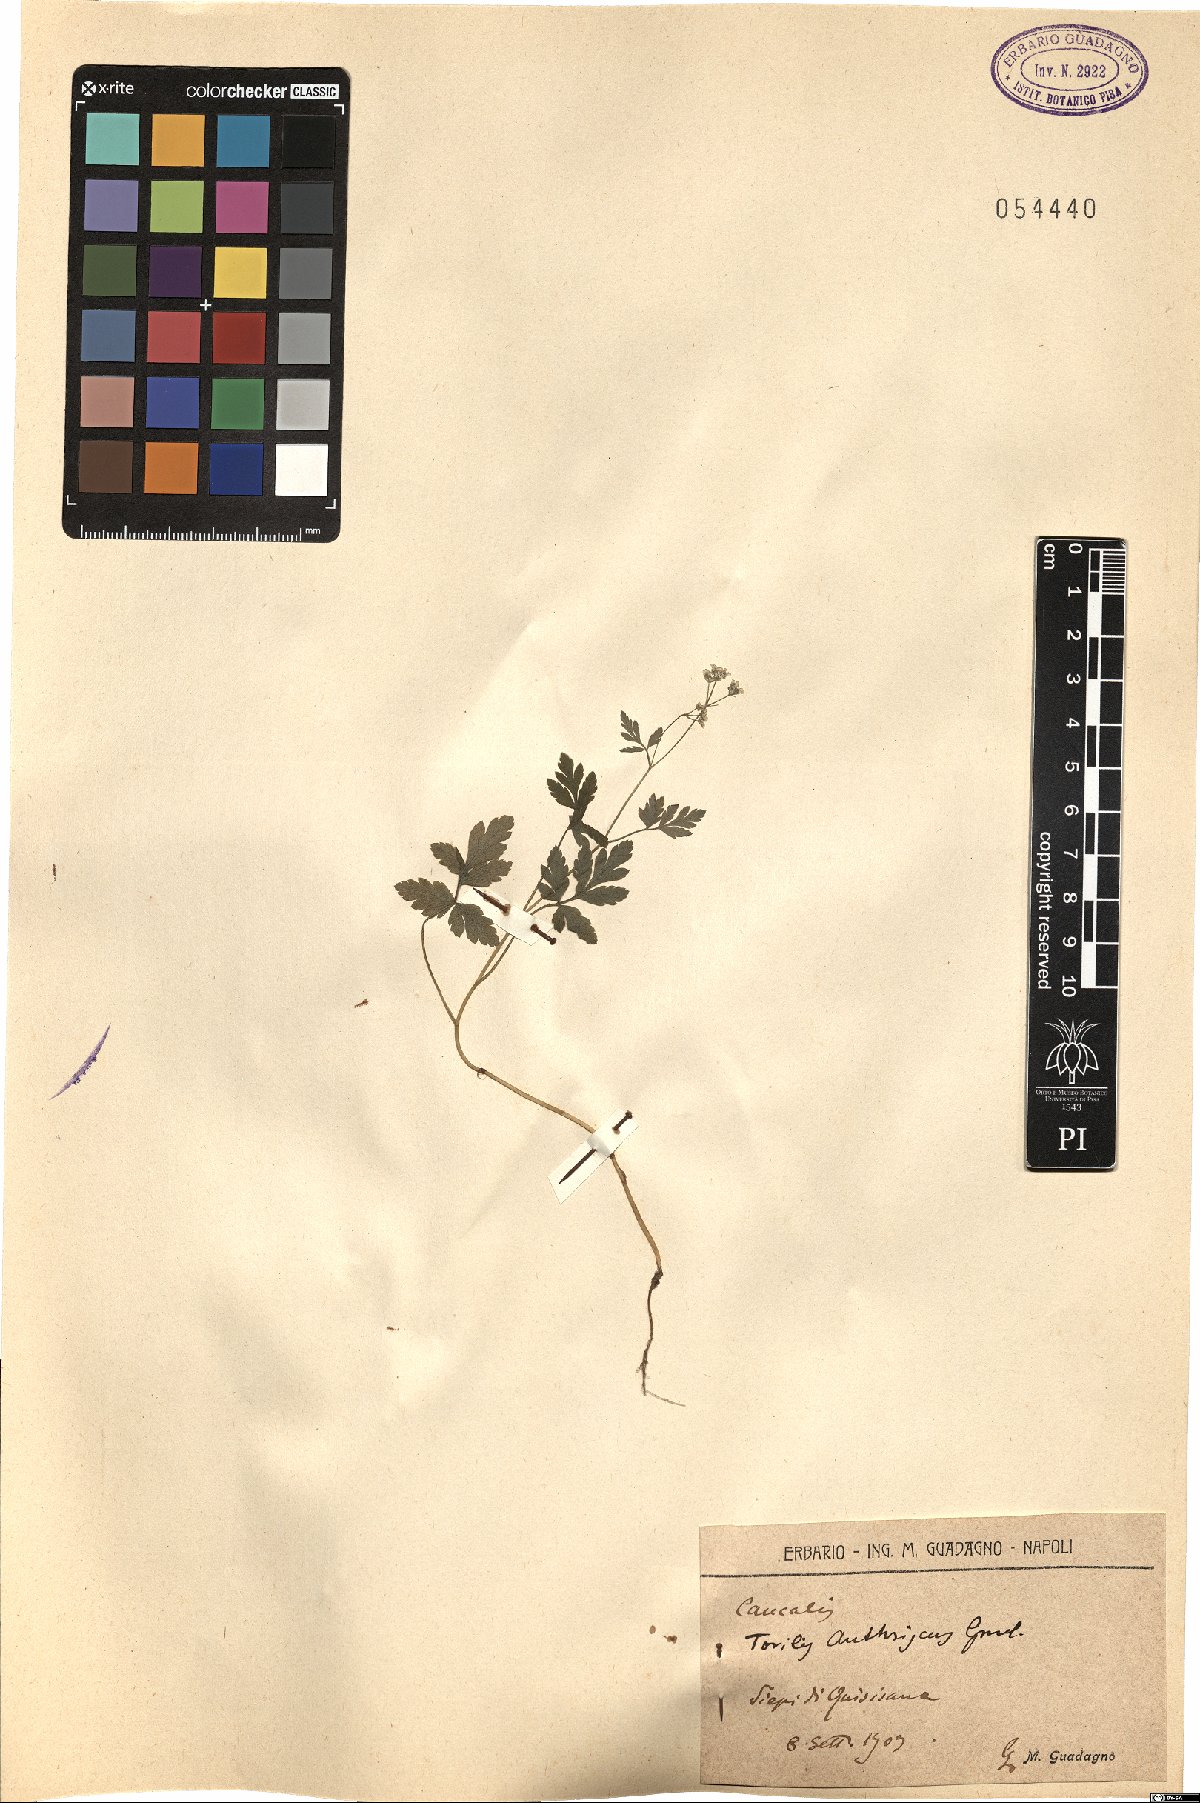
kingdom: Plantae
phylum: Tracheophyta
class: Magnoliopsida
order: Apiales
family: Apiaceae
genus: Torilis
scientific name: Torilis japonica
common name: Upright hedge-parsley
